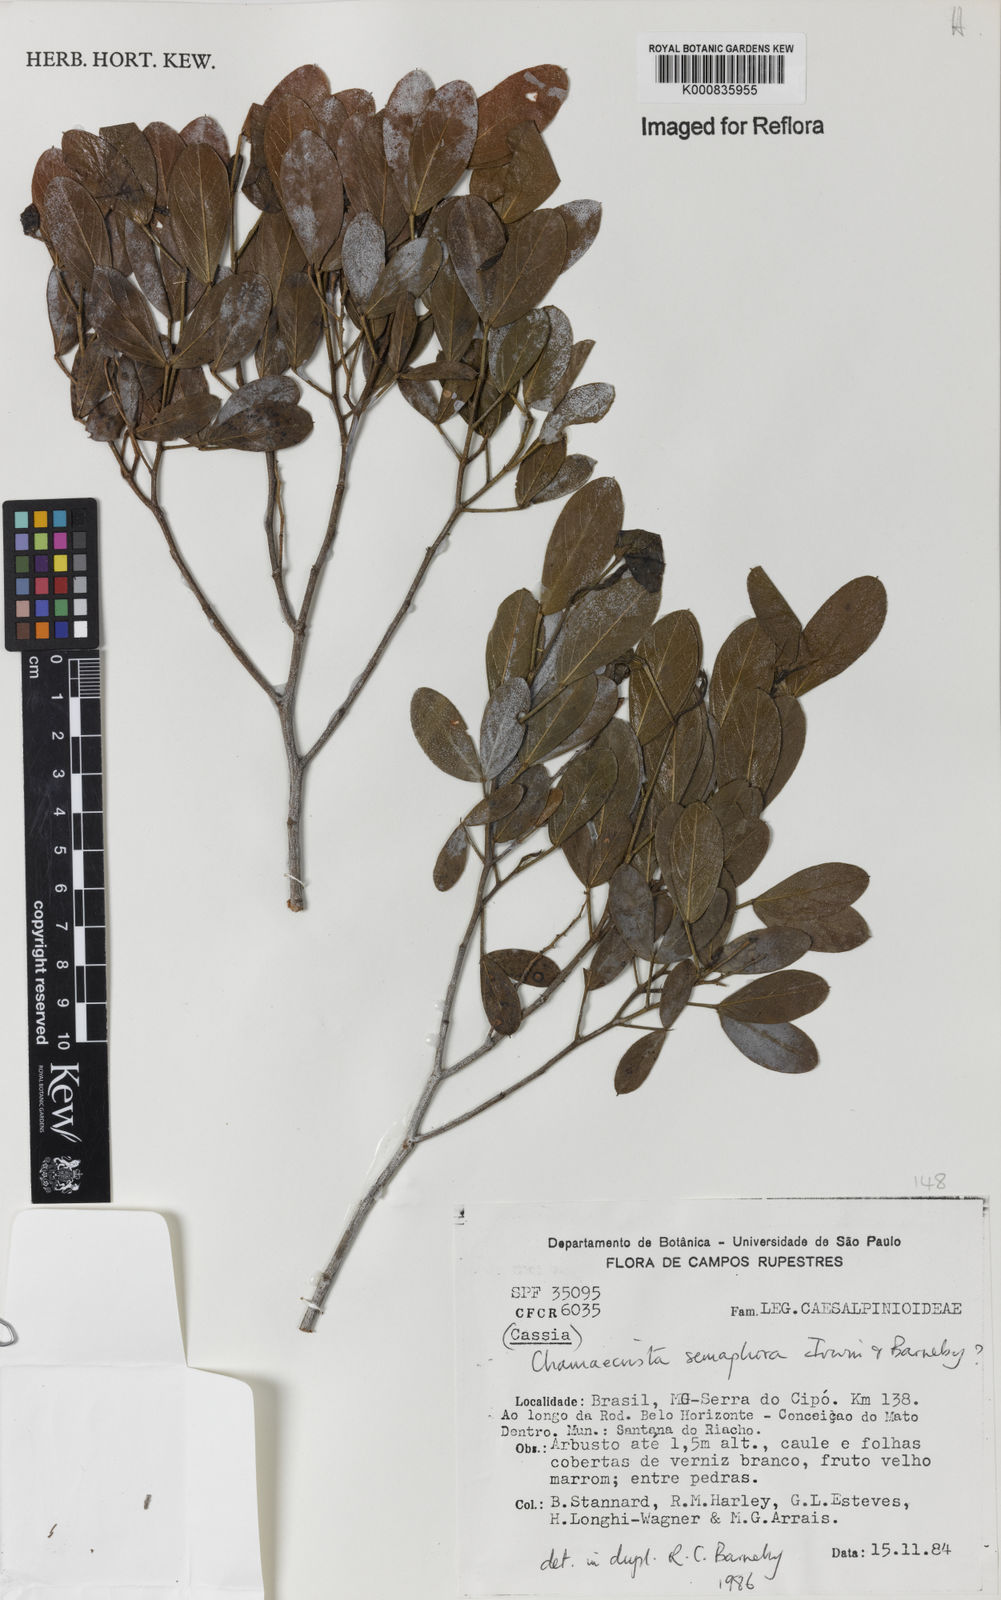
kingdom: Plantae
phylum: Tracheophyta
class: Magnoliopsida
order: Fabales
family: Fabaceae
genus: Chamaecrista
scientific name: Chamaecrista semaphora
